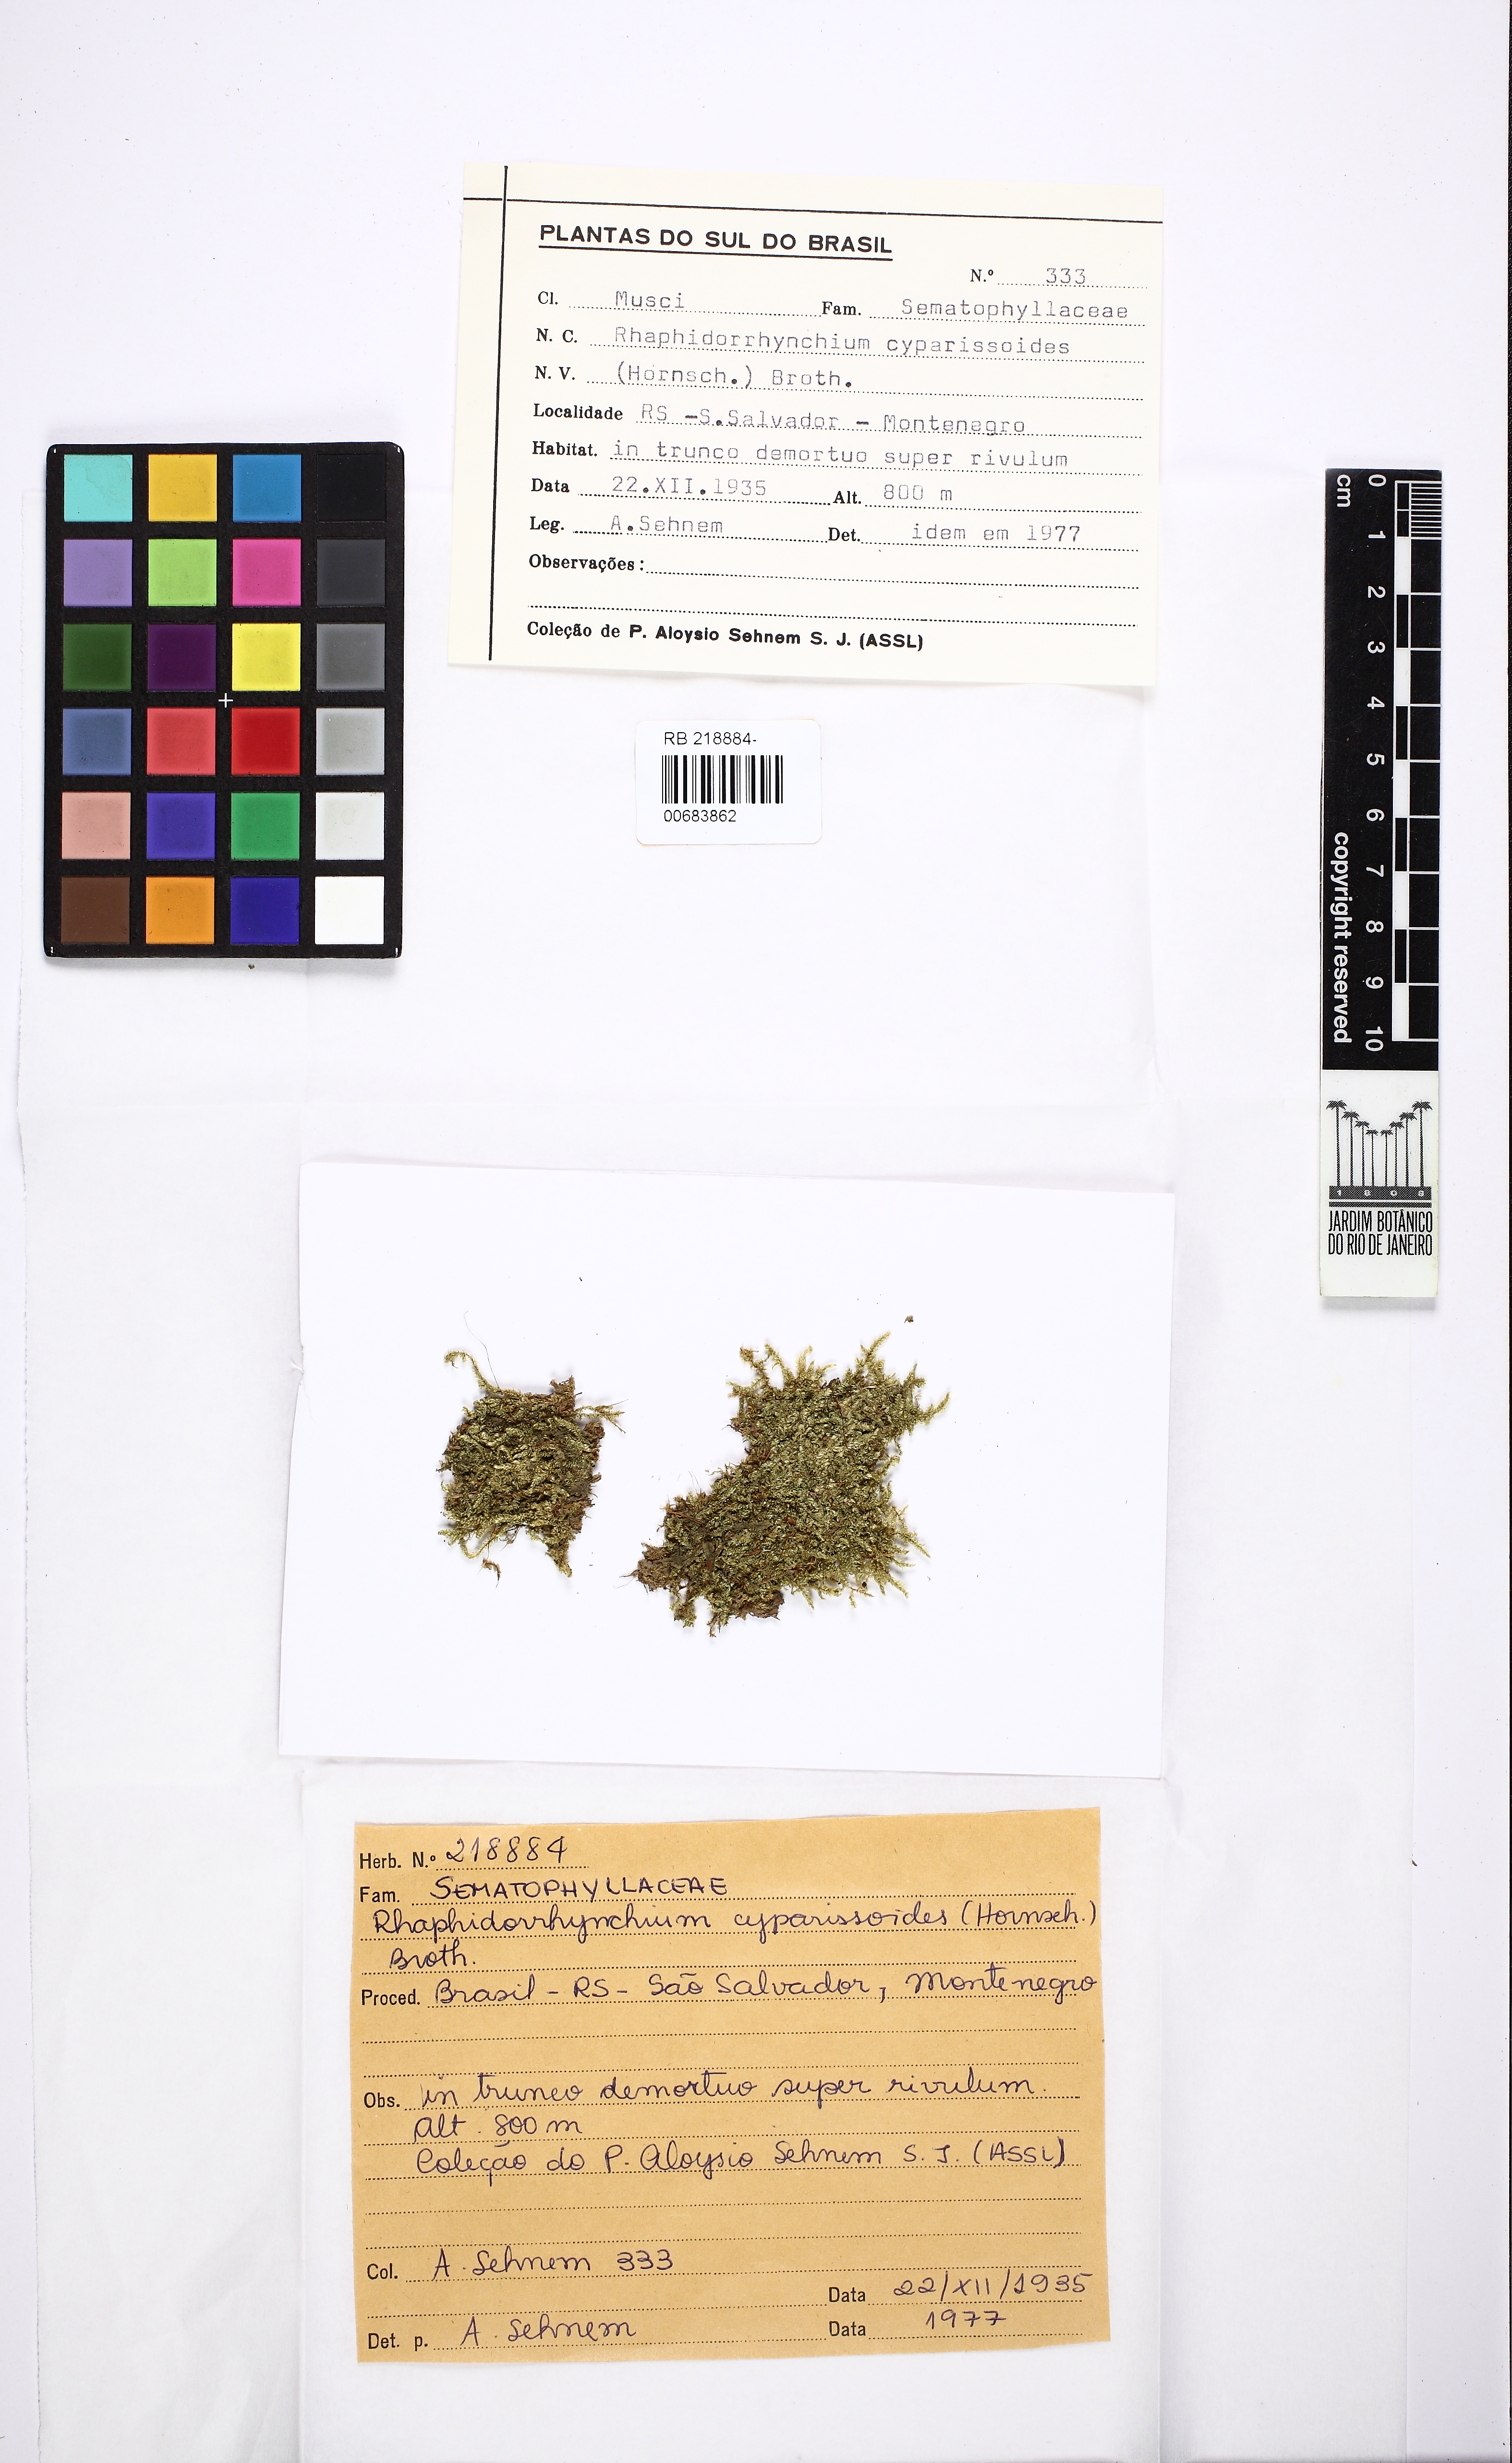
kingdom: Plantae
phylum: Bryophyta
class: Bryopsida
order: Hypnales
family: Sematophyllaceae
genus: Trichosteleum
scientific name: Trichosteleum cyparissoides
